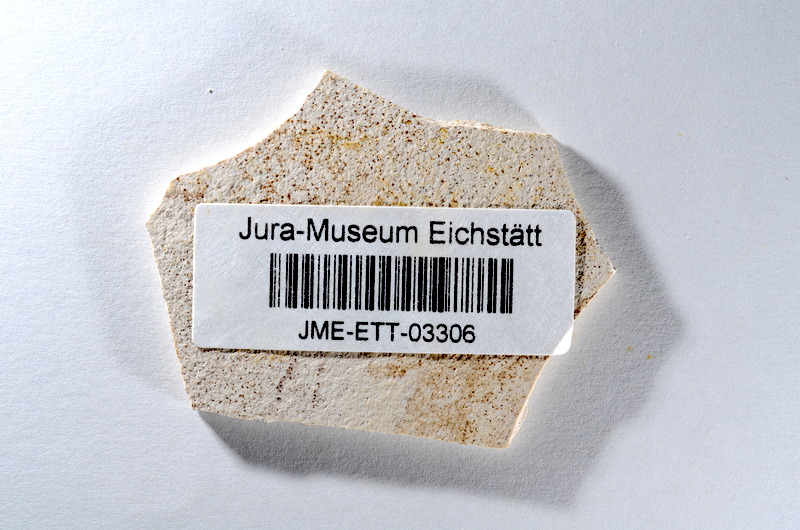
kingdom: Animalia
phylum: Chordata
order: Salmoniformes
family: Orthogonikleithridae
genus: Orthogonikleithrus
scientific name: Orthogonikleithrus hoelli
